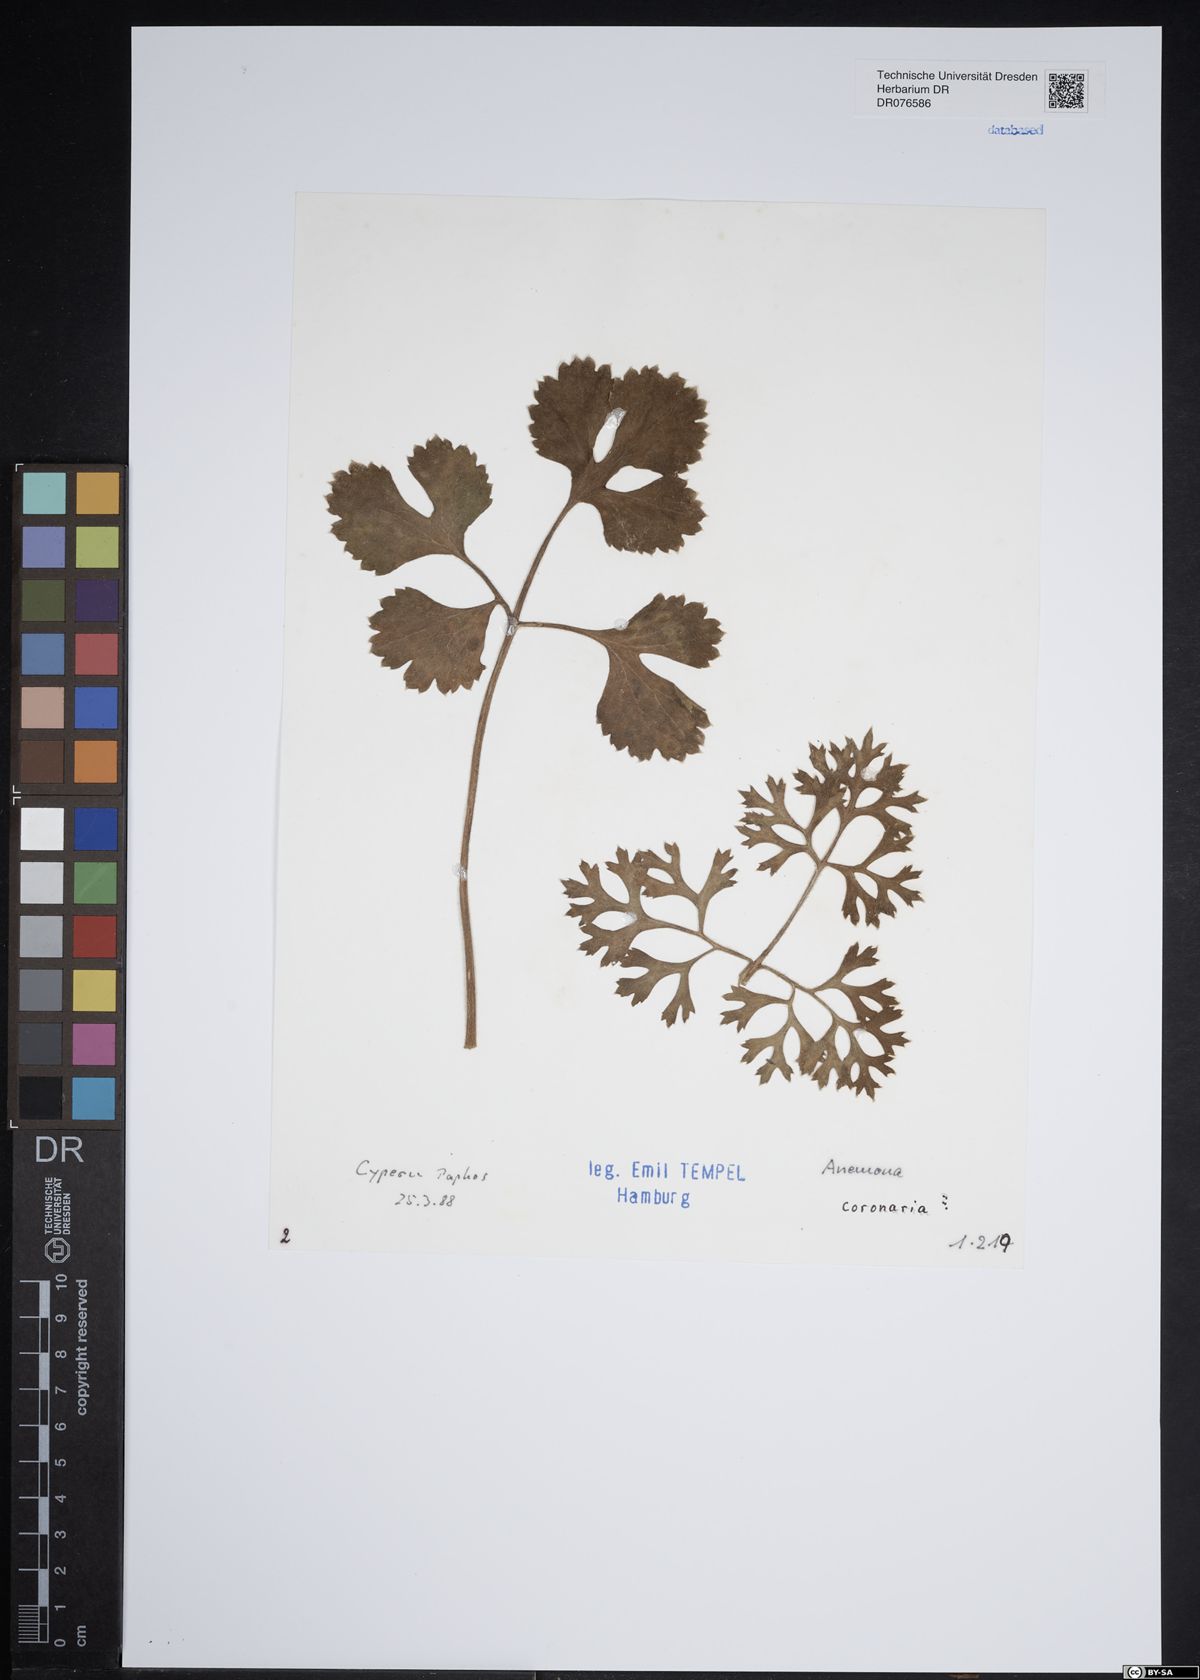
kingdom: Plantae
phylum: Tracheophyta
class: Magnoliopsida
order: Ranunculales
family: Ranunculaceae
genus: Anemone
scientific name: Anemone coronaria
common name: Poppy anemone
